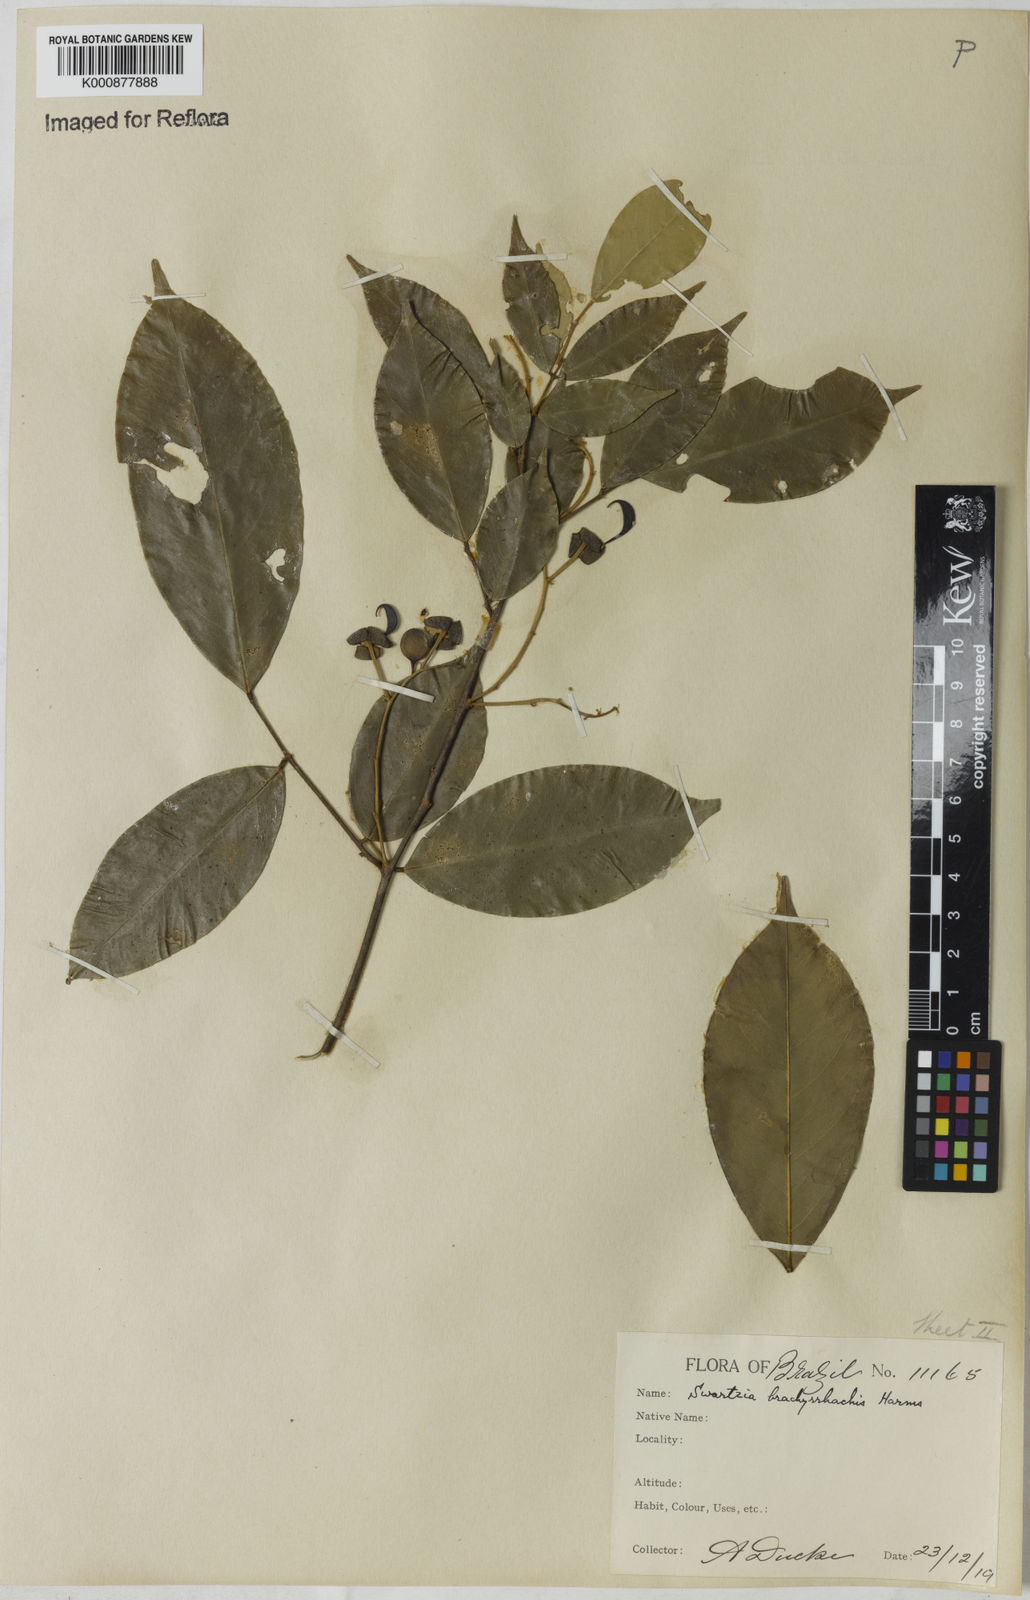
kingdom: Plantae
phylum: Tracheophyta
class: Magnoliopsida
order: Fabales
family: Fabaceae
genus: Swartzia
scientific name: Swartzia
